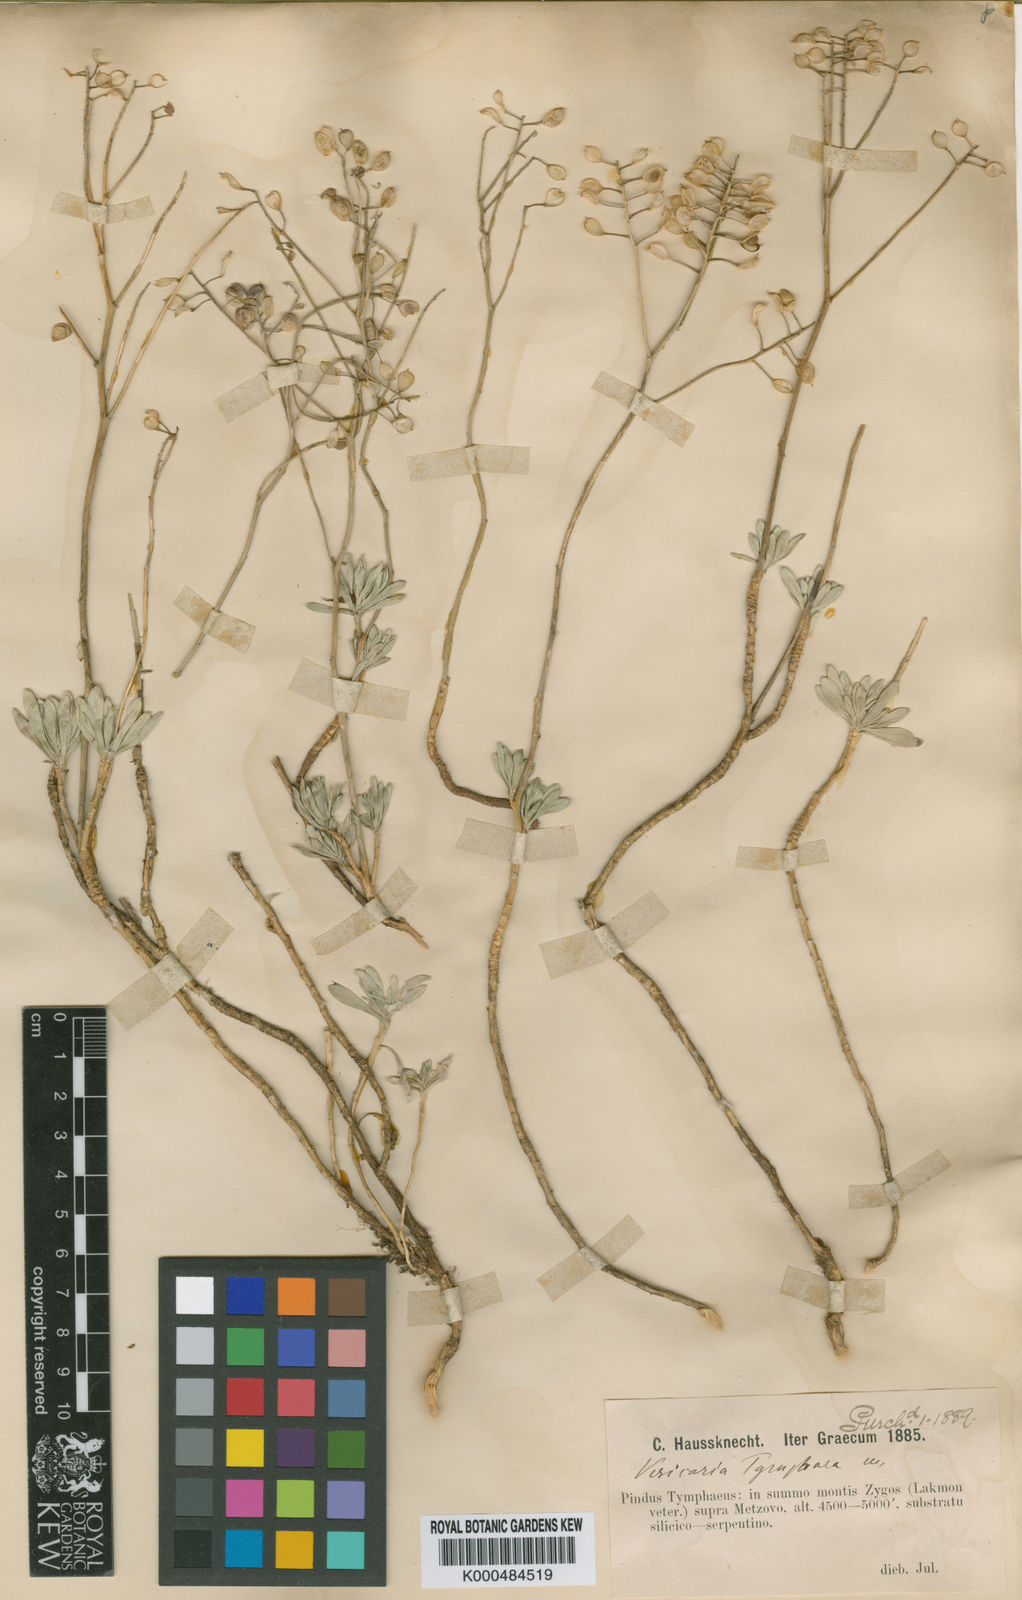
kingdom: Plantae
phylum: Tracheophyta
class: Magnoliopsida
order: Brassicales
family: Brassicaceae
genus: Alyssoides
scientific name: Alyssoides
